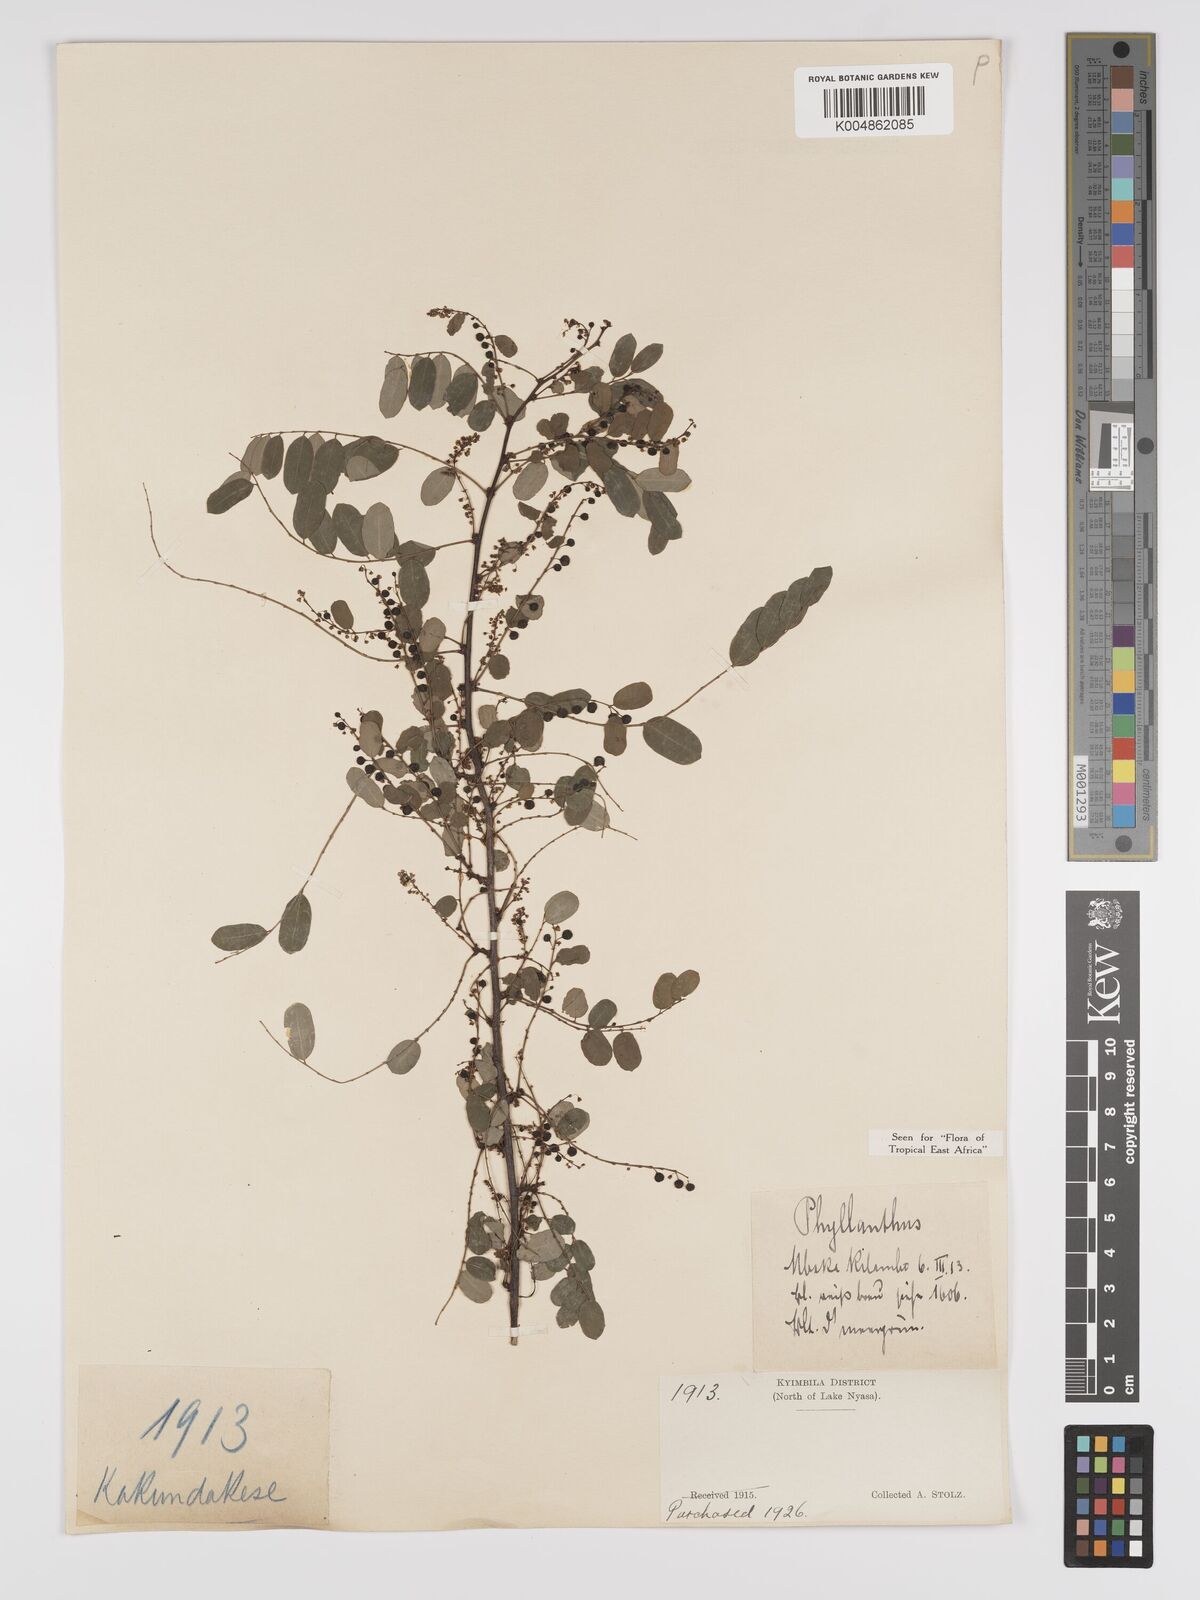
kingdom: Plantae
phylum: Tracheophyta
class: Magnoliopsida
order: Malpighiales
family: Phyllanthaceae
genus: Phyllanthus
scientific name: Phyllanthus ovalifolius
